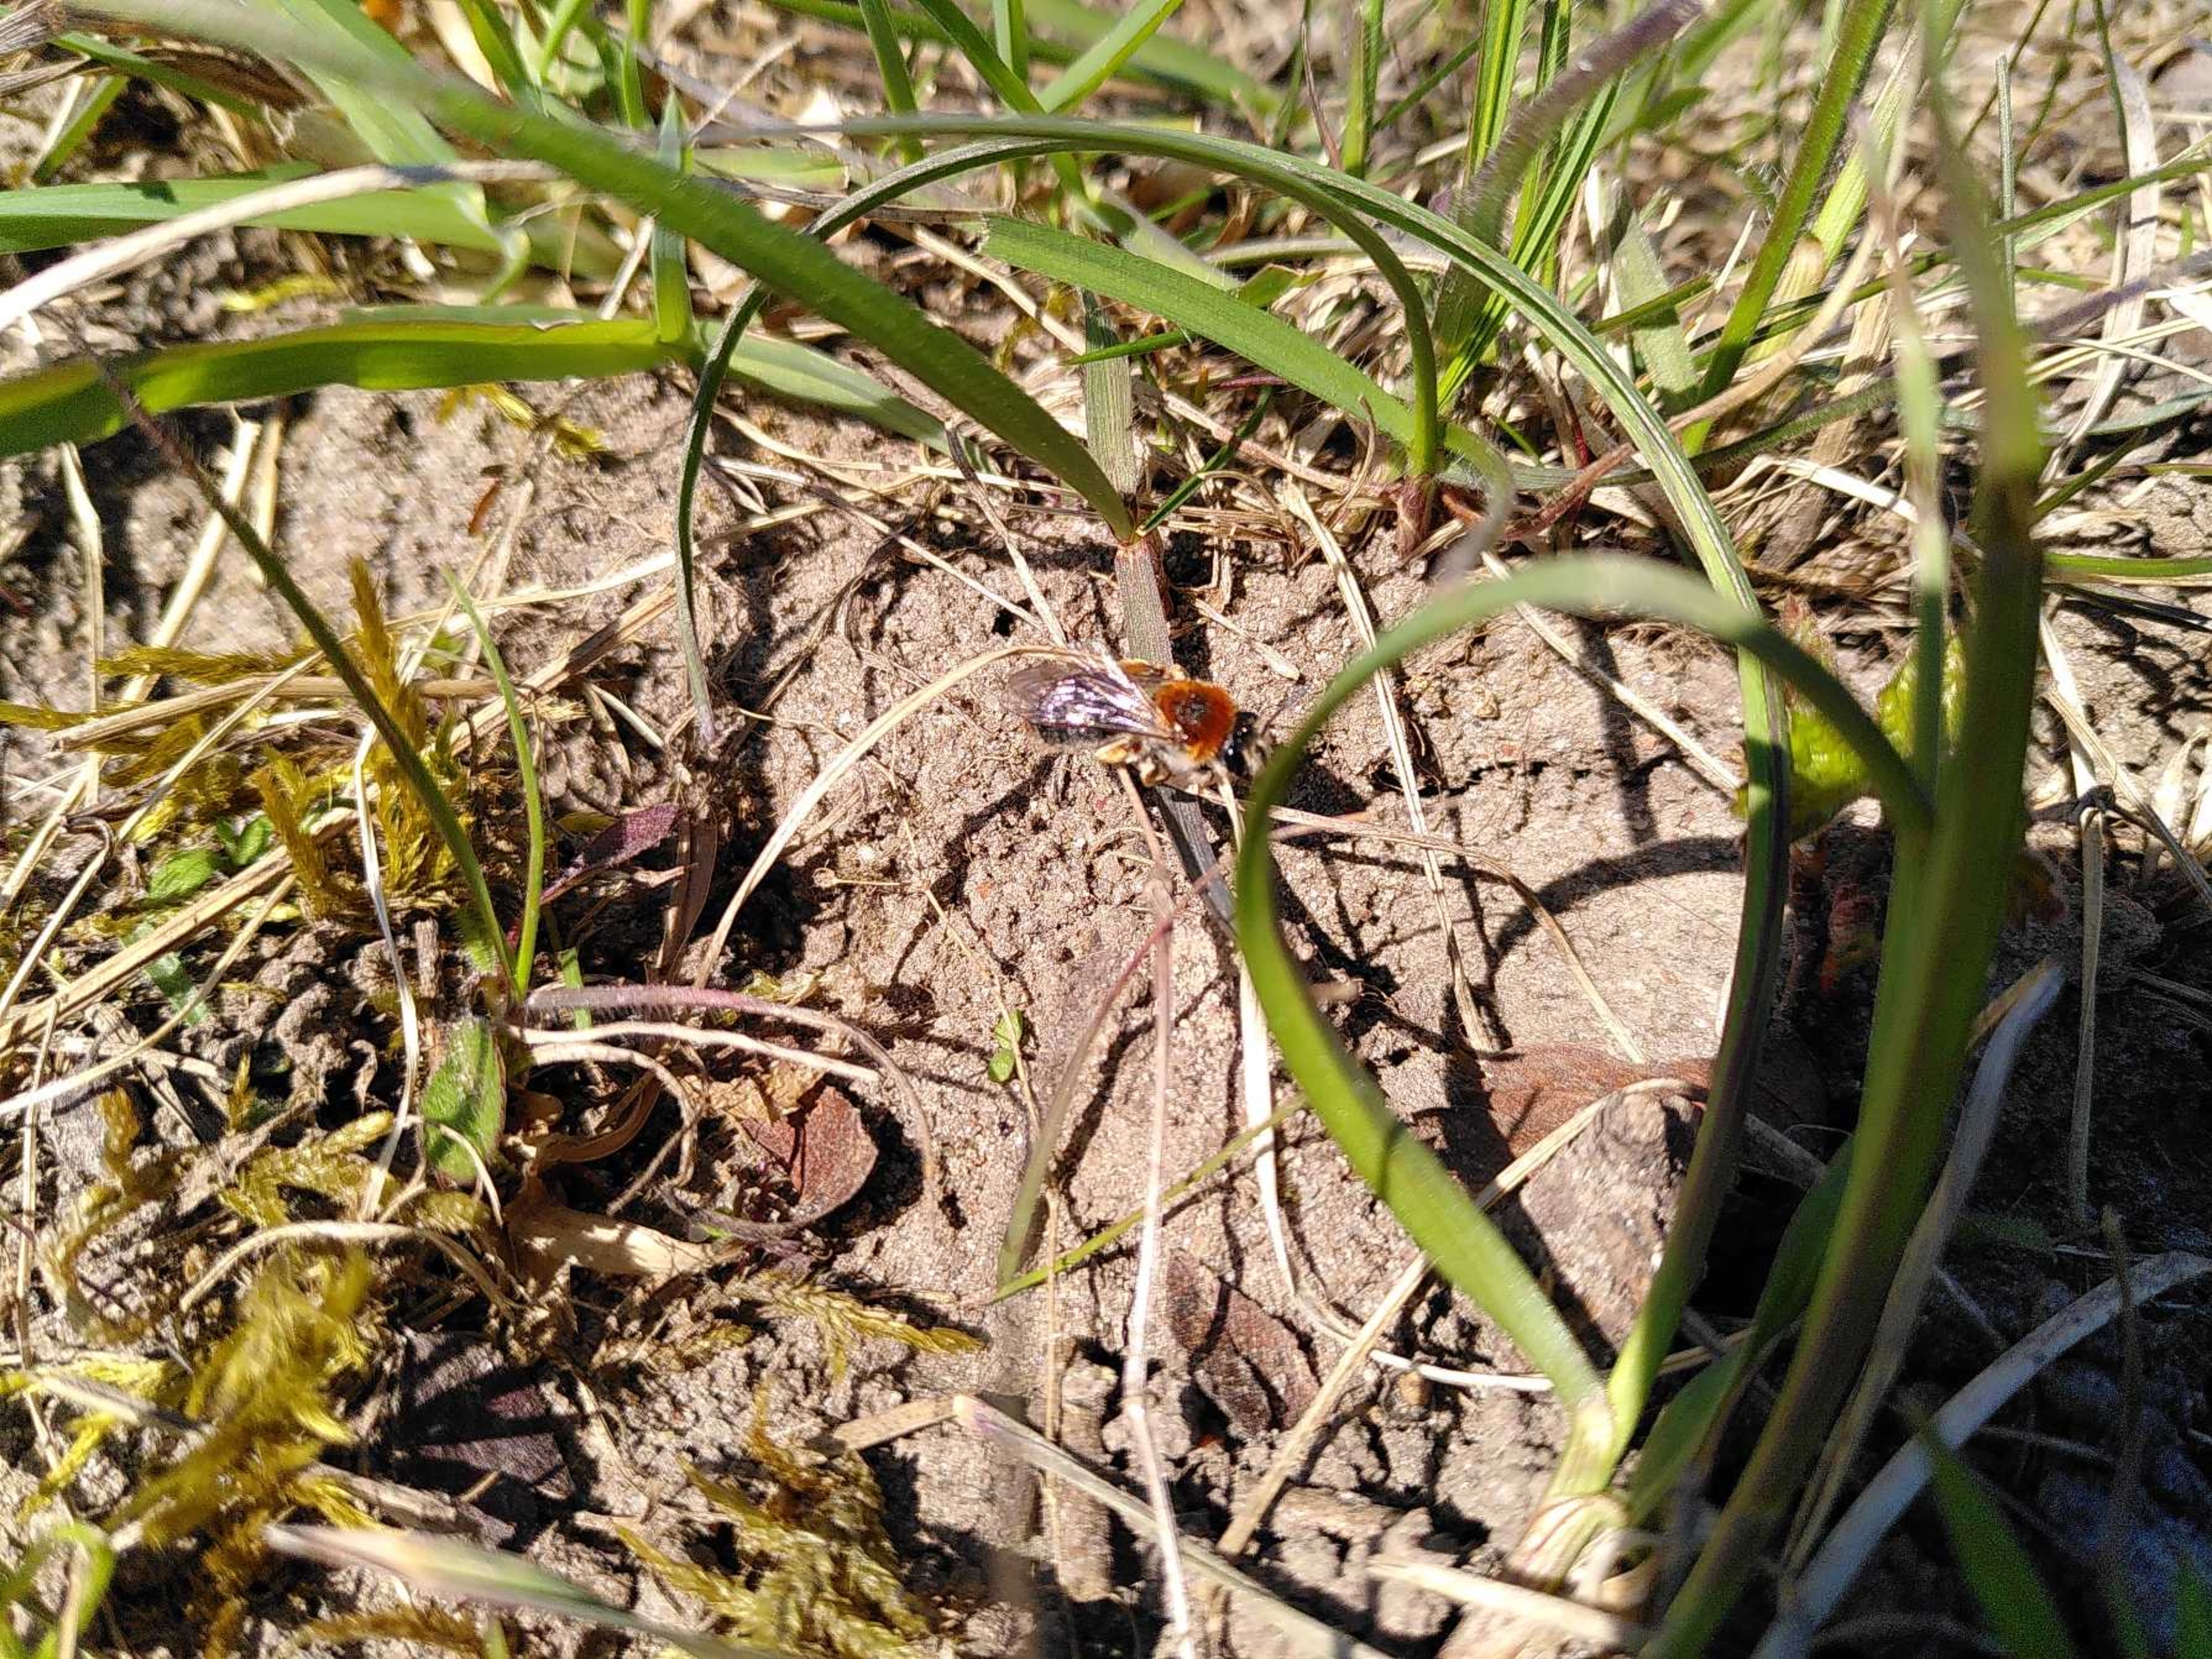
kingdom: Animalia
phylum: Arthropoda
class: Insecta
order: Hymenoptera
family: Andrenidae
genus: Andrena
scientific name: Andrena haemorrhoa
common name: Havejordbi
